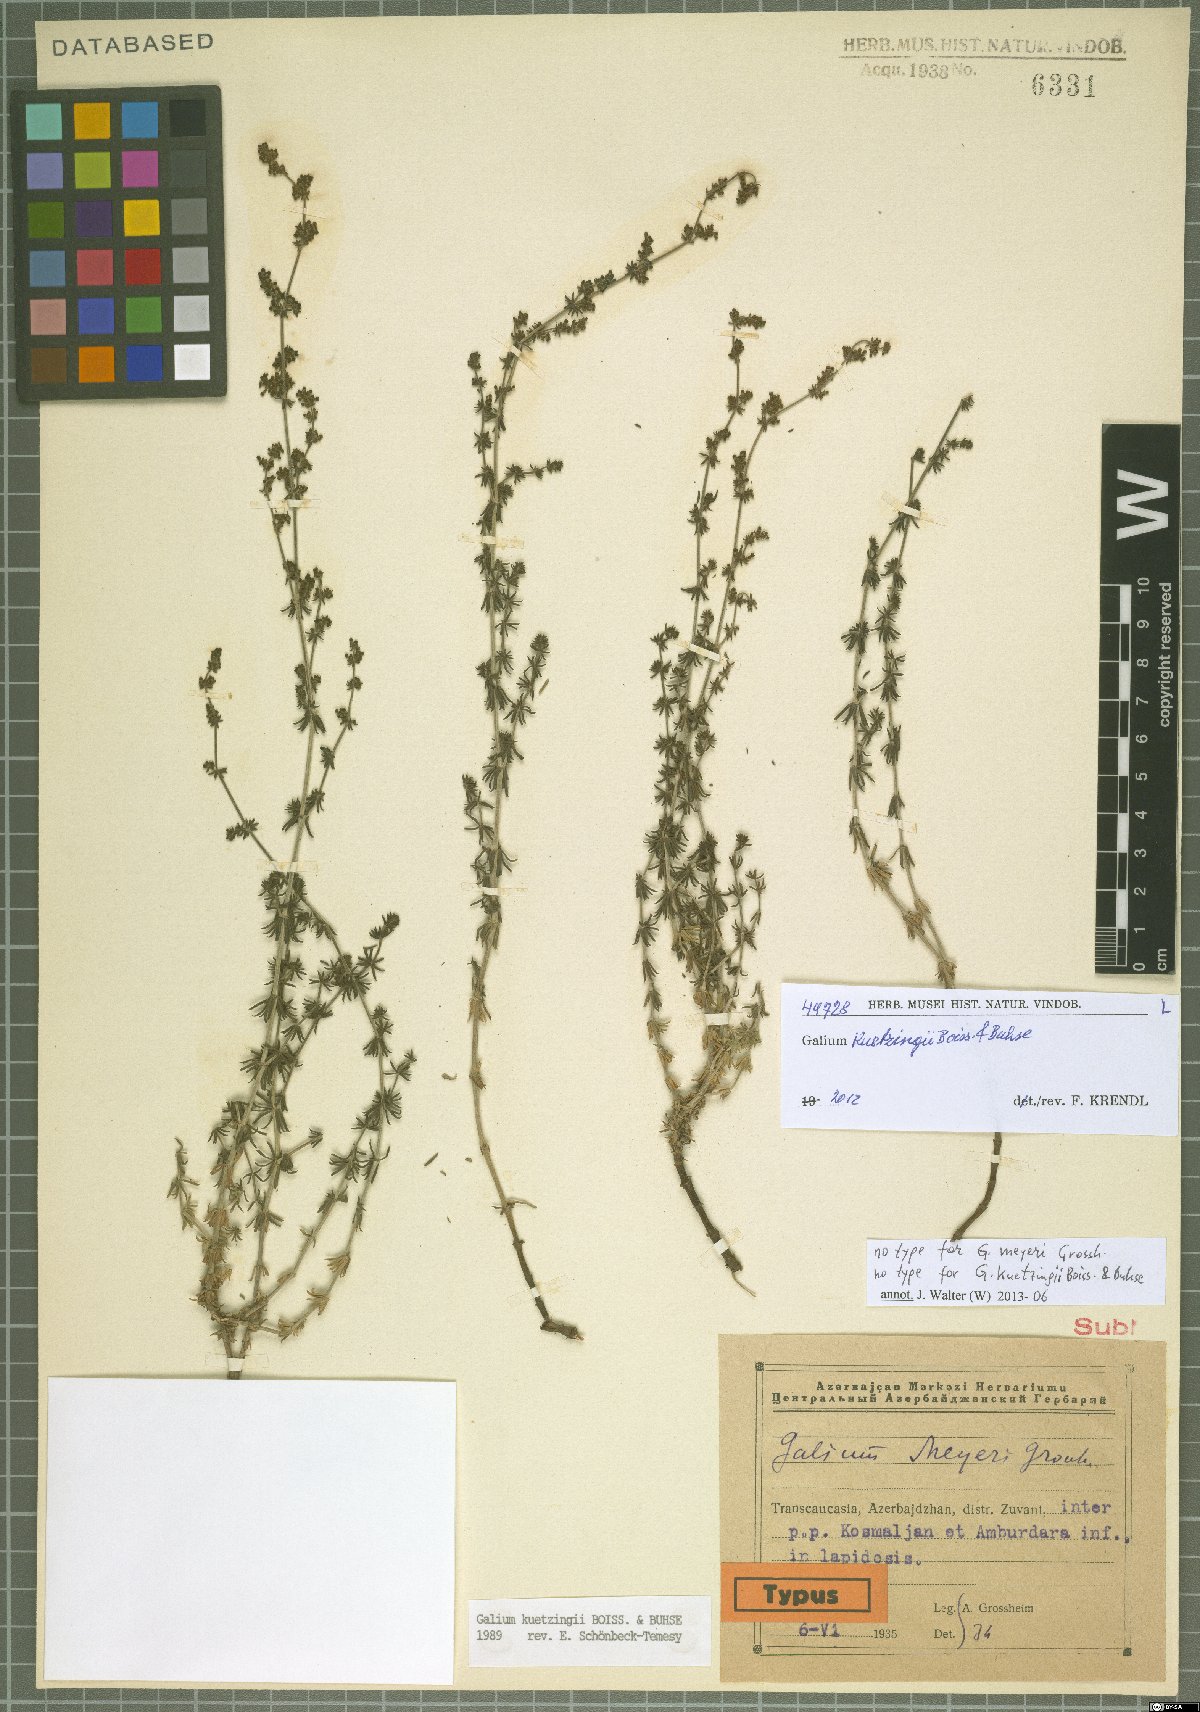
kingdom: Plantae
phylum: Tracheophyta
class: Magnoliopsida
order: Gentianales
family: Rubiaceae
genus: Galium
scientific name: Galium kuetzingii
